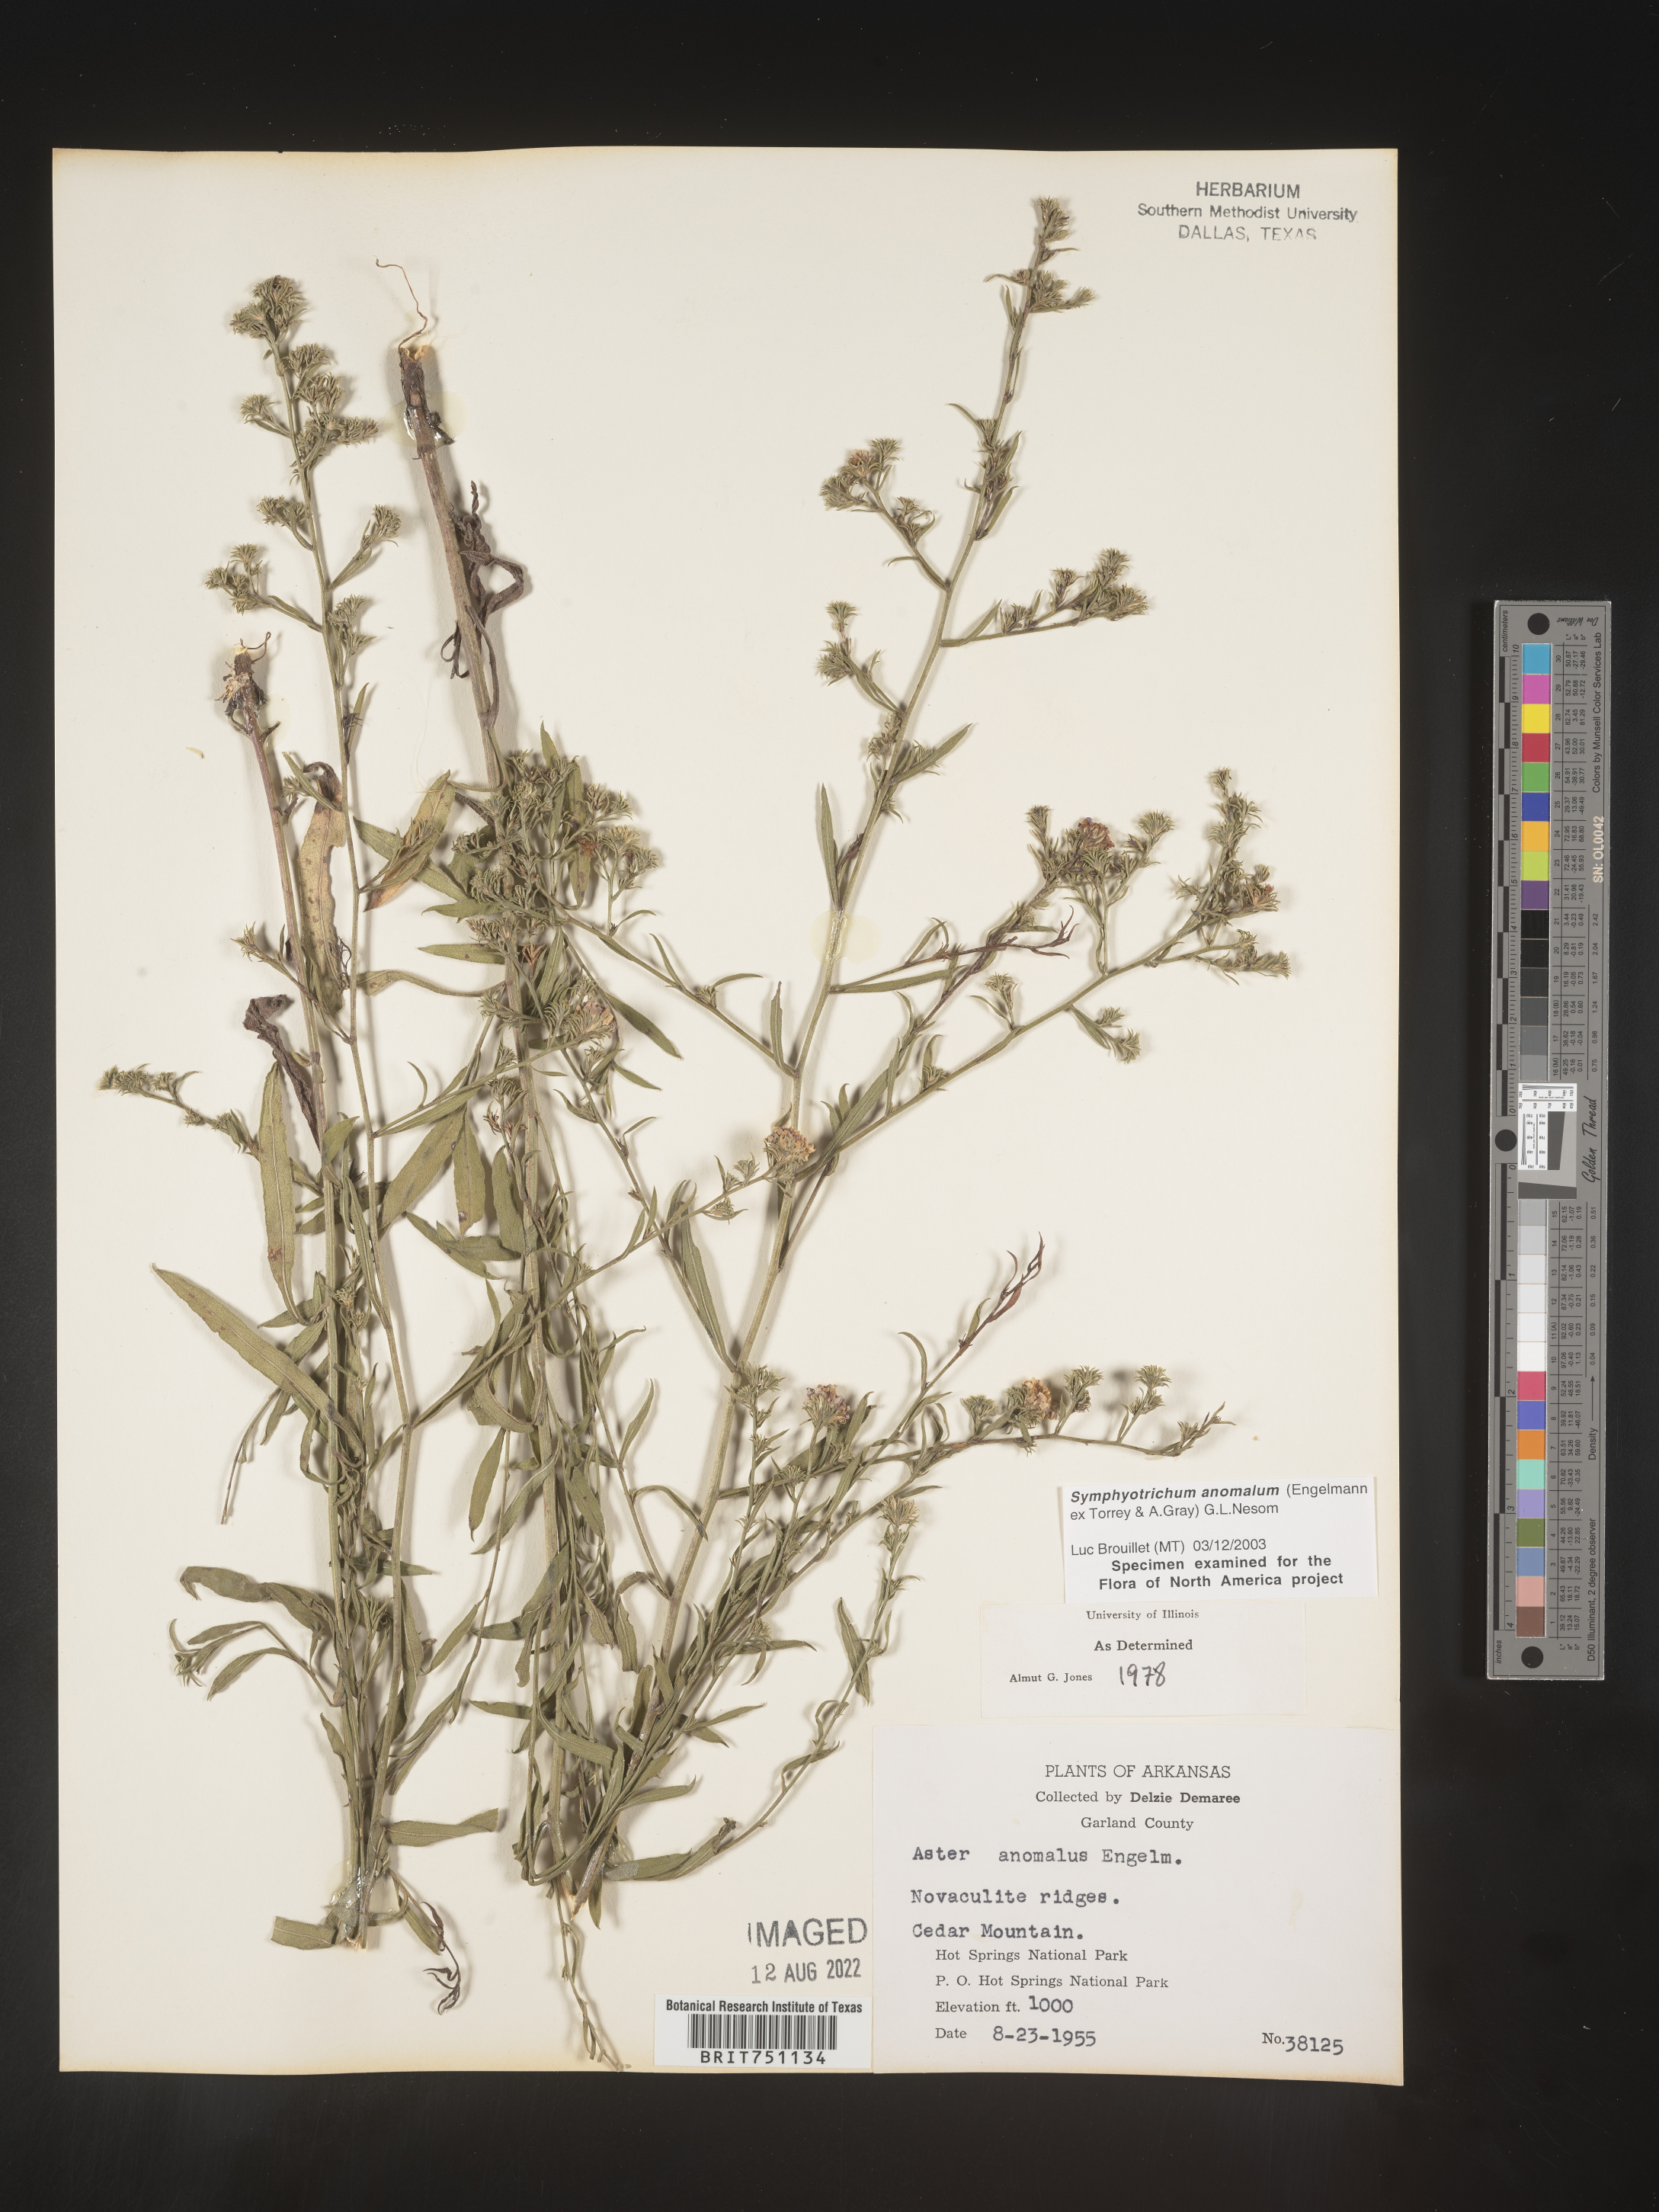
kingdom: Plantae
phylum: Tracheophyta
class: Magnoliopsida
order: Asterales
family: Asteraceae
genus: Symphyotrichum
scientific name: Symphyotrichum anomalum
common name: Many-ray aster
